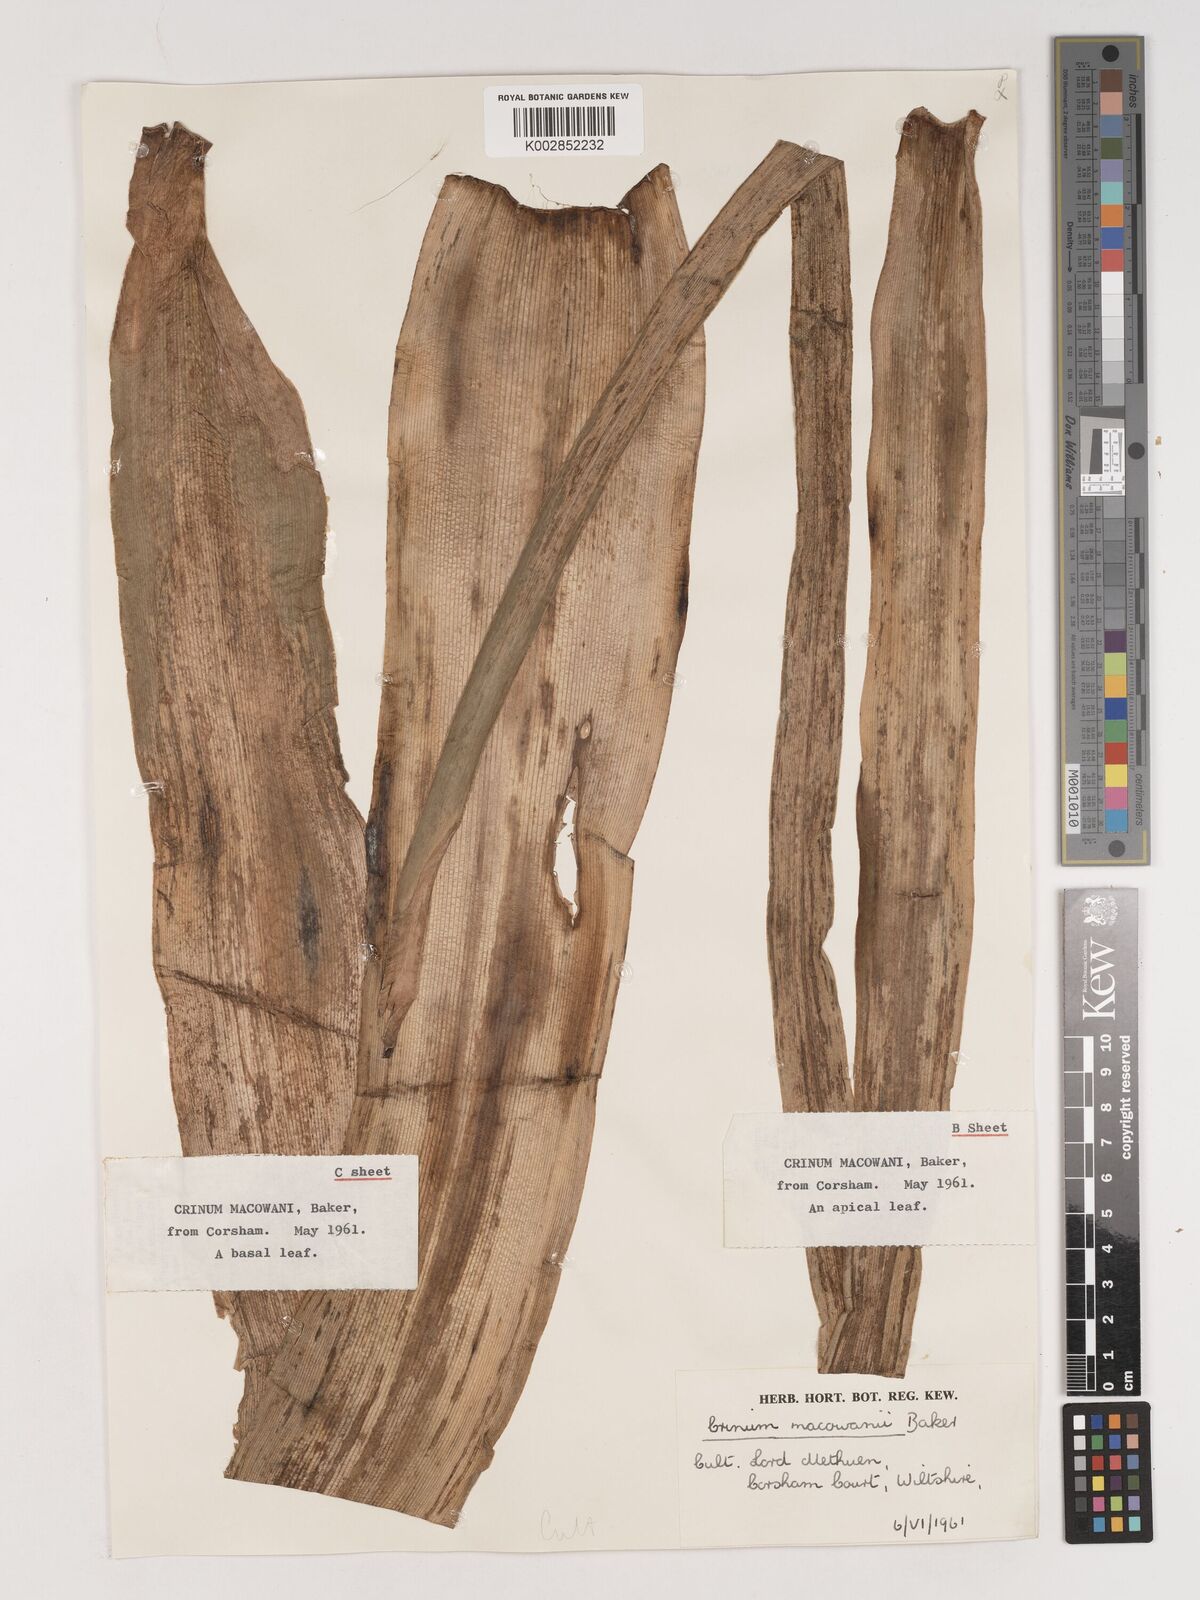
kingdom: Plantae
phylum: Tracheophyta
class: Liliopsida
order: Asparagales
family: Amaryllidaceae
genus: Crinum
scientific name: Crinum macowanii
